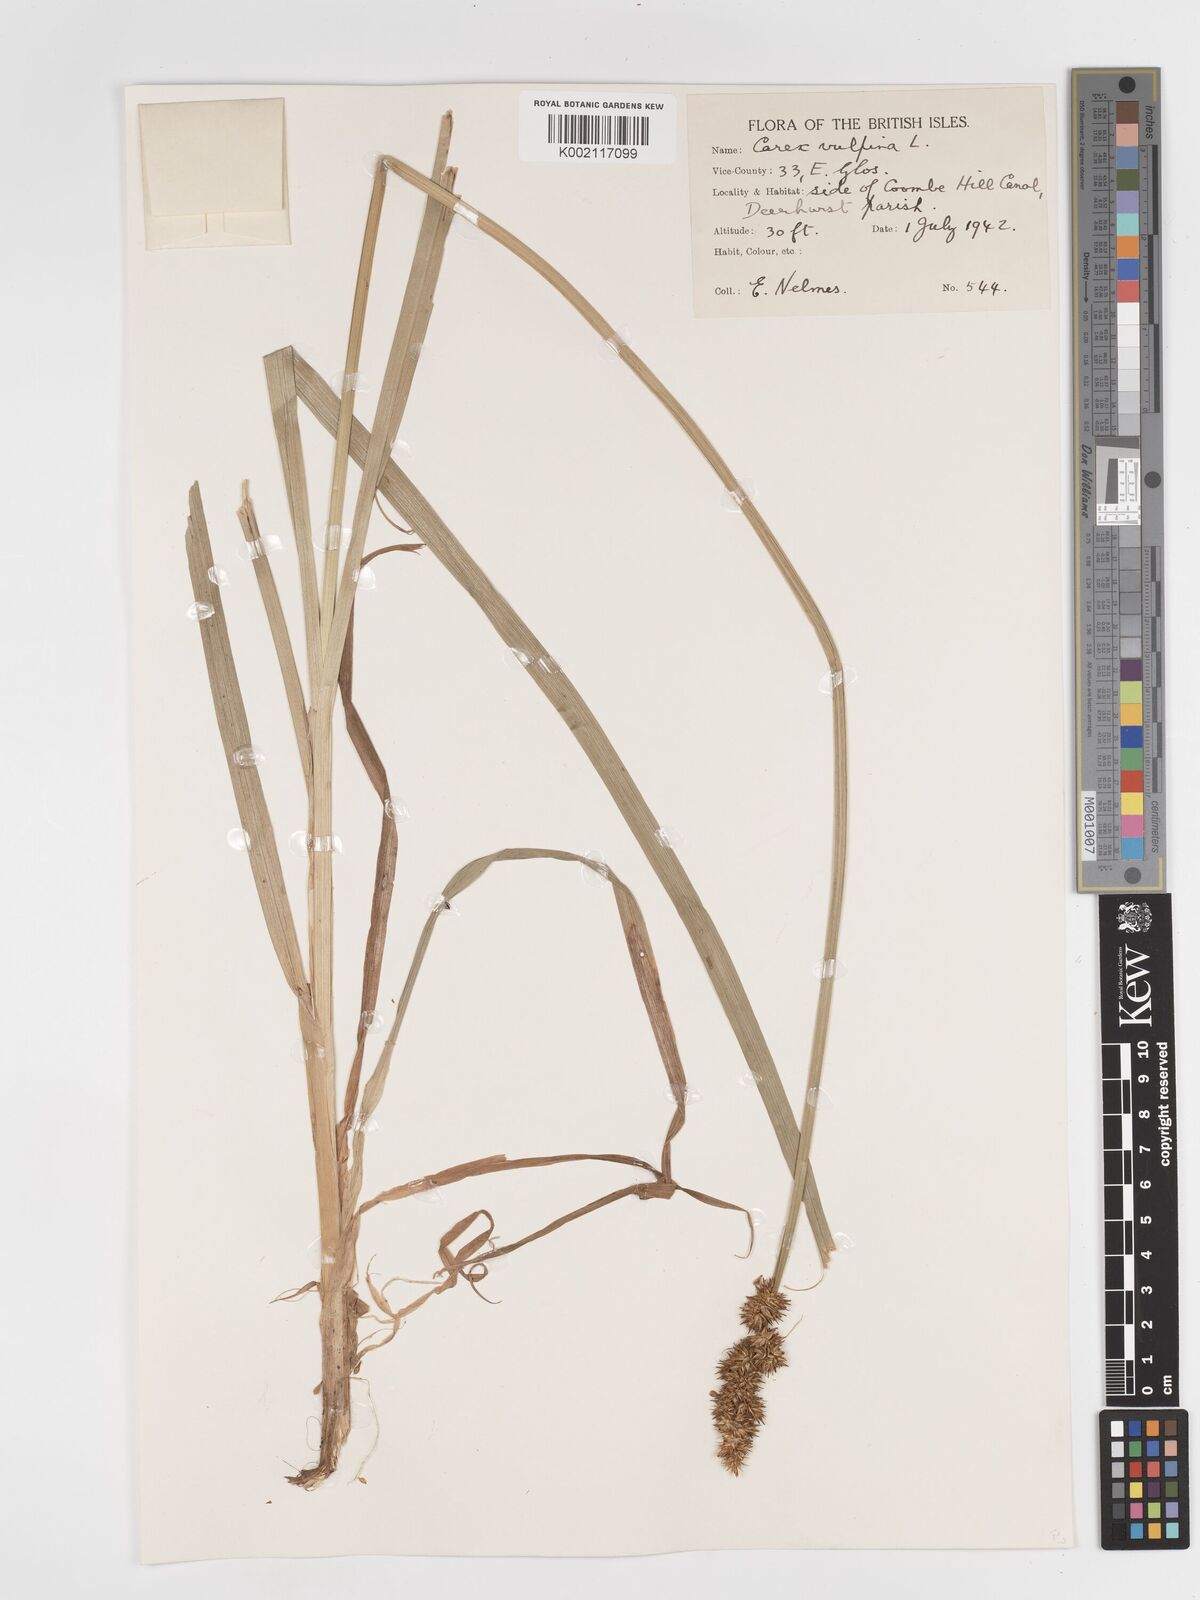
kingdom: Plantae
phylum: Tracheophyta
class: Liliopsida
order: Poales
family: Cyperaceae
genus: Carex
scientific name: Carex vulpina
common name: True fox-sedge
